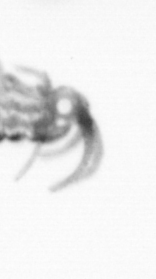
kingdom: Animalia
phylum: Annelida
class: Polychaeta
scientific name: Polychaeta
